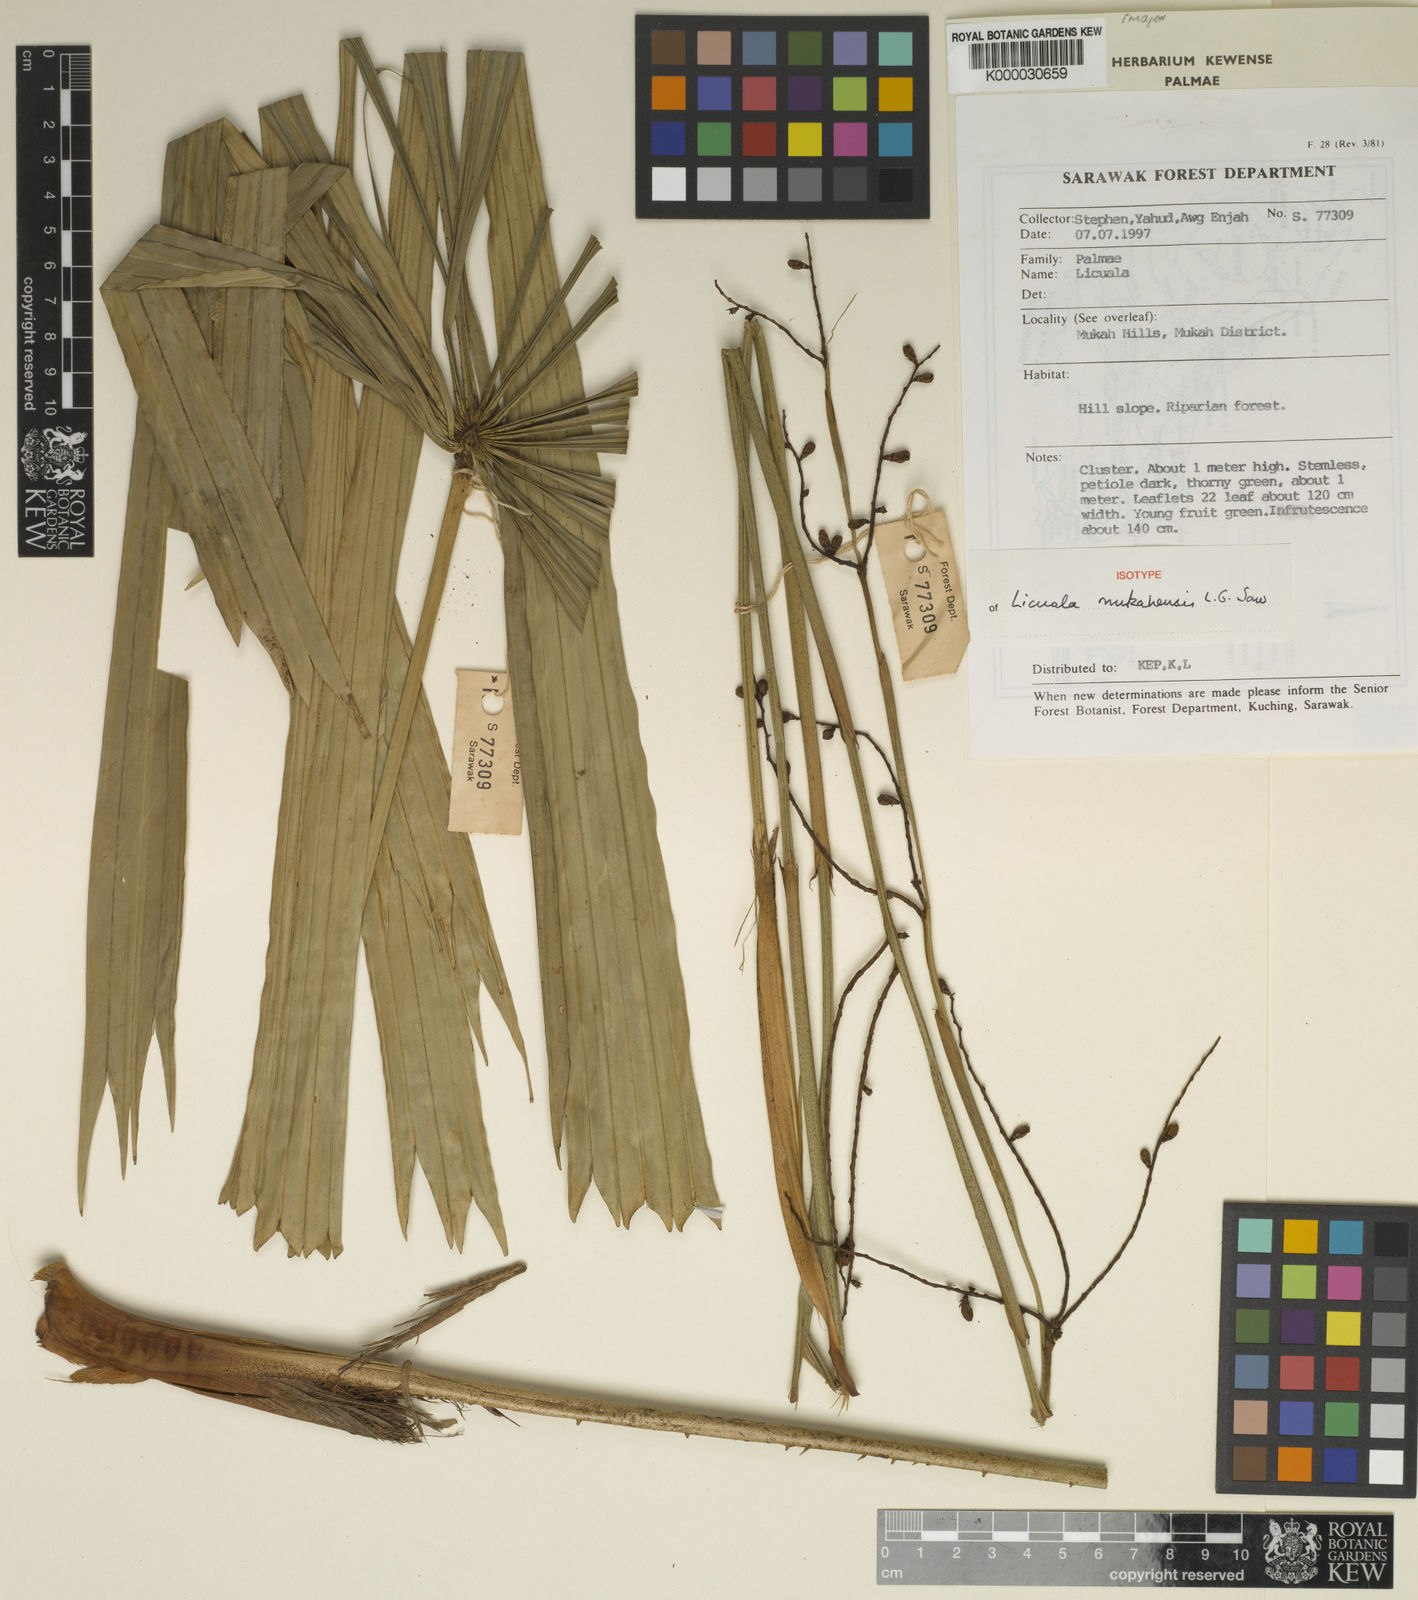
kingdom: Plantae
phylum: Tracheophyta
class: Liliopsida
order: Arecales
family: Arecaceae
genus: Licuala
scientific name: Licuala mukahensis
